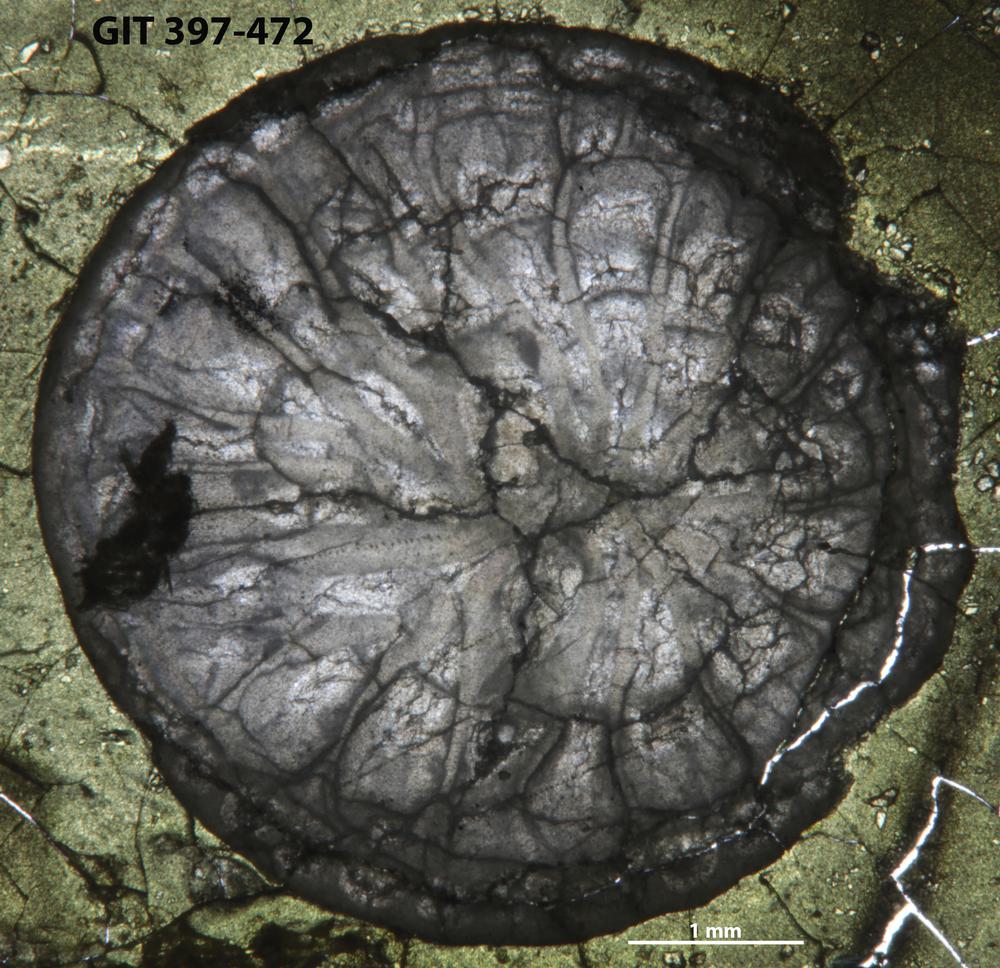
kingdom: Animalia
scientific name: Animalia
